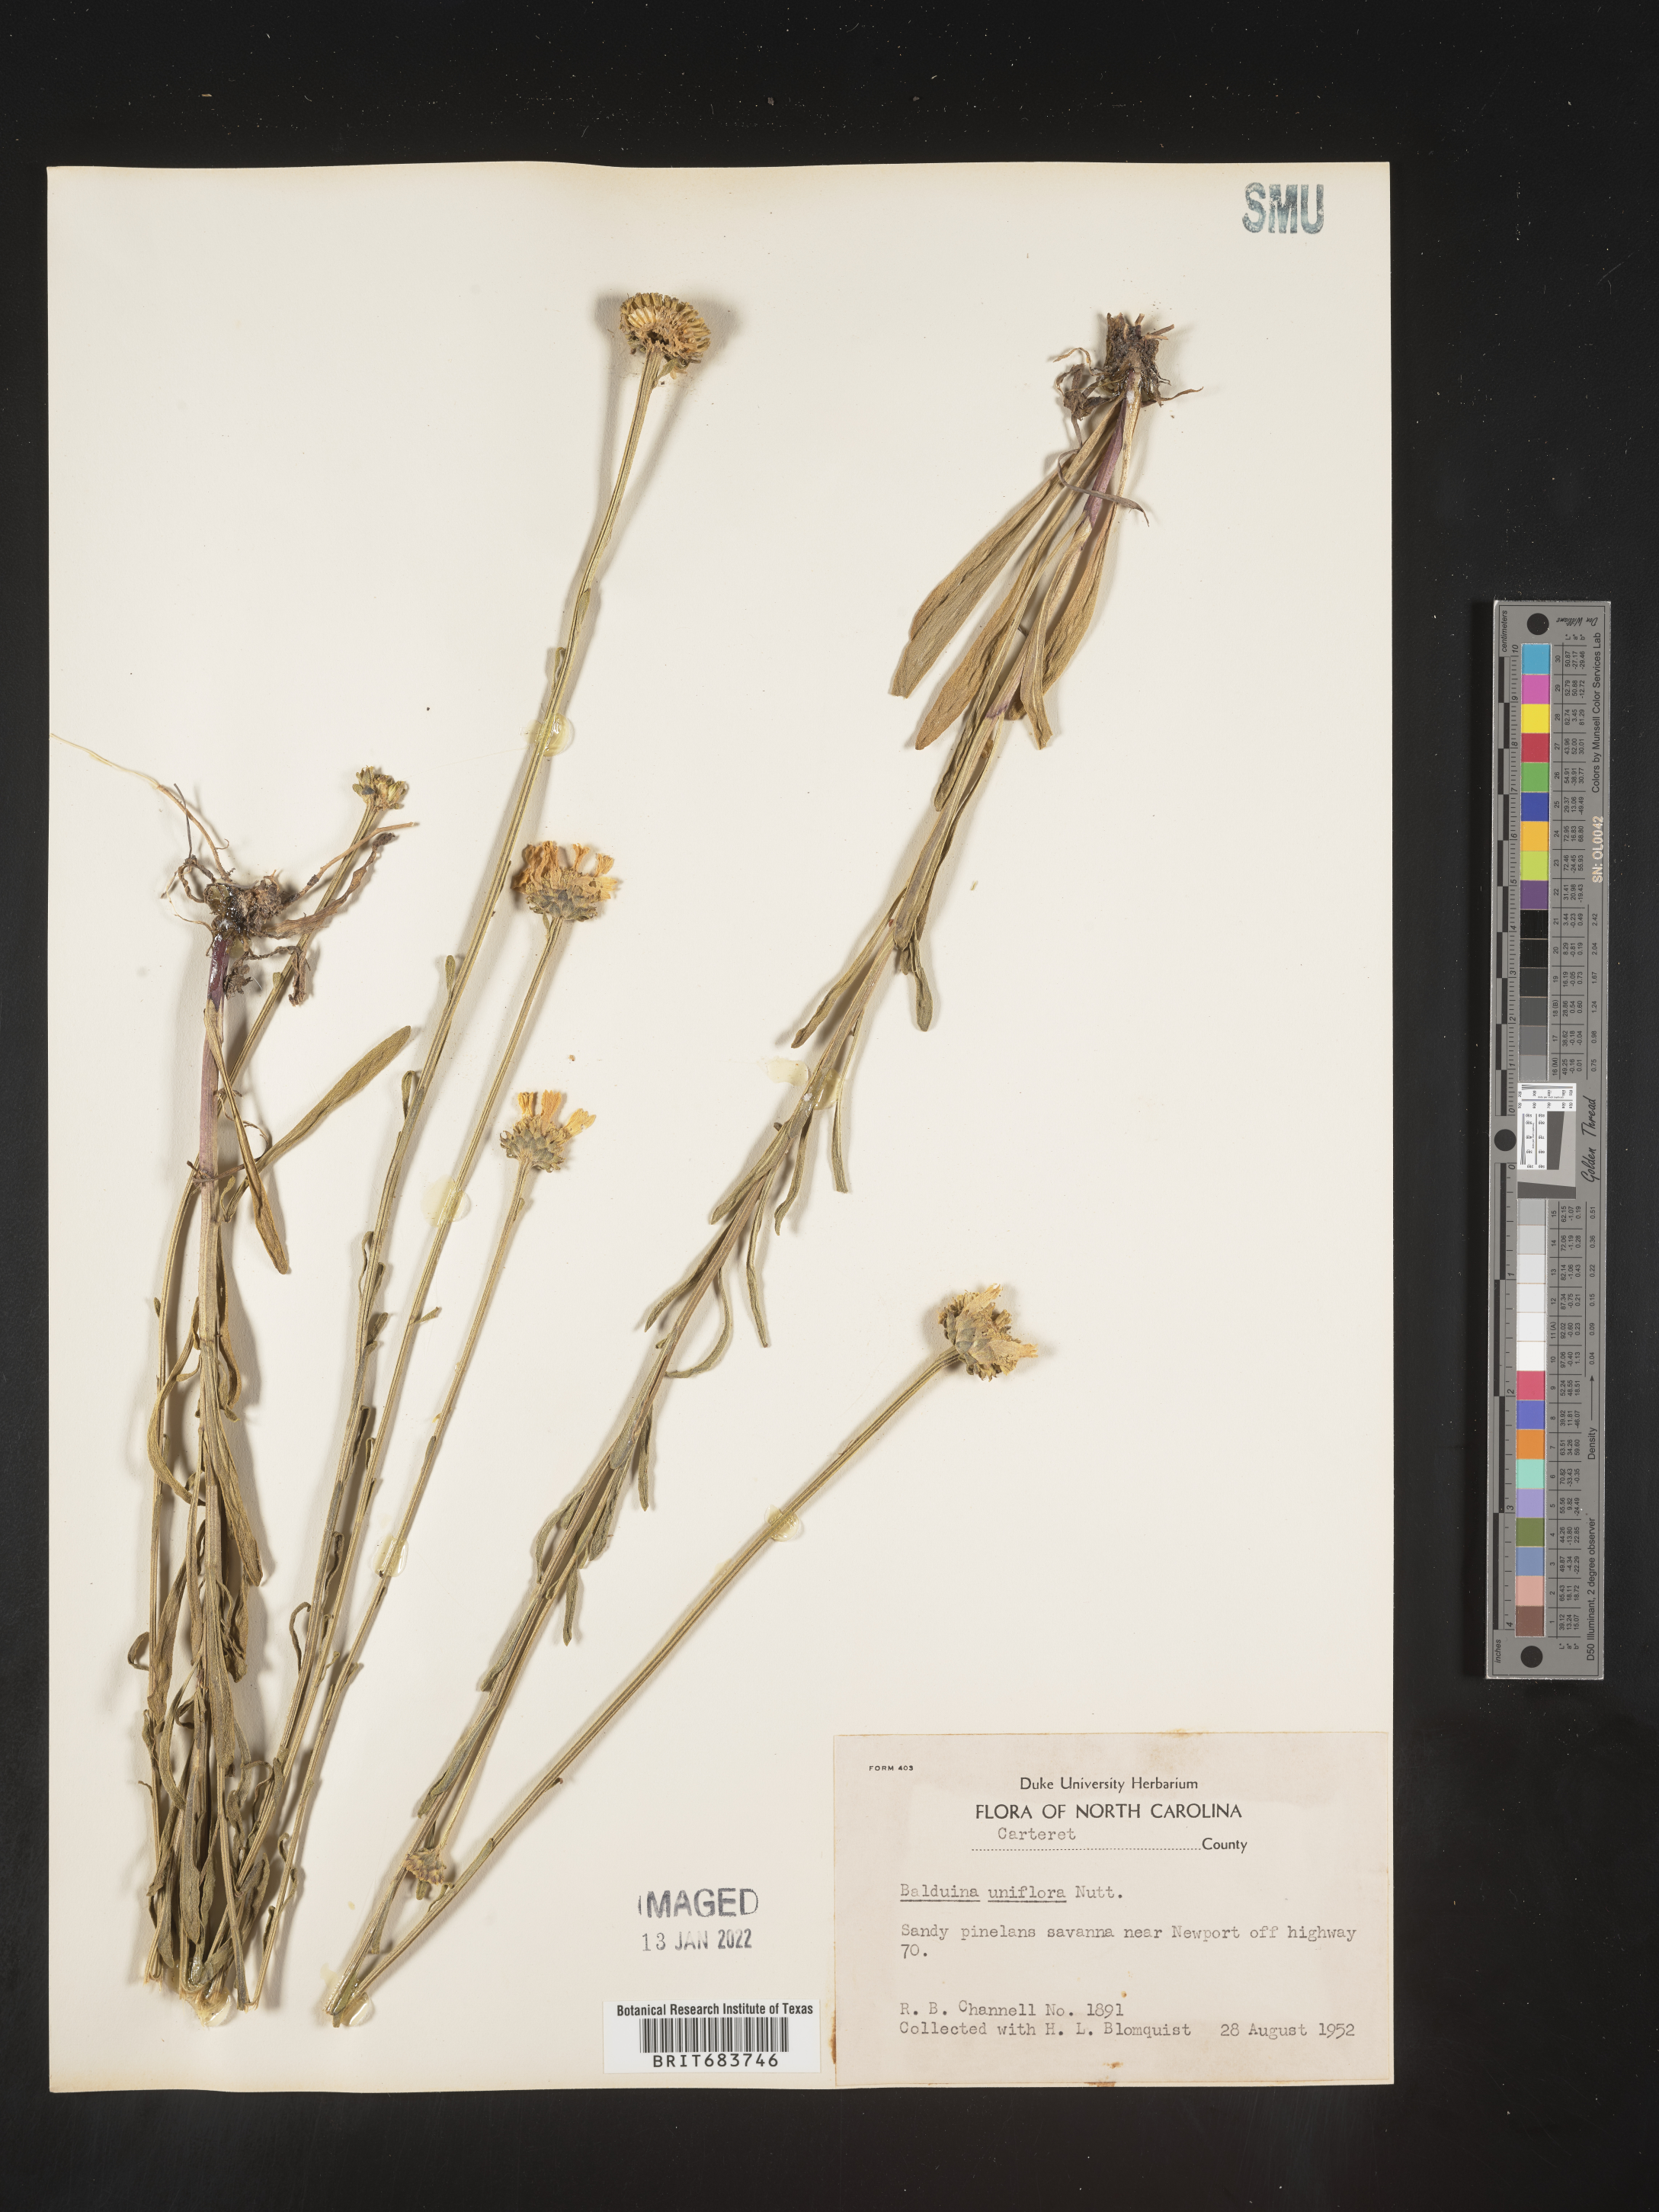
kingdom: Plantae
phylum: Tracheophyta
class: Magnoliopsida
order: Asterales
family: Asteraceae
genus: Balduina
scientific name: Balduina uniflora
